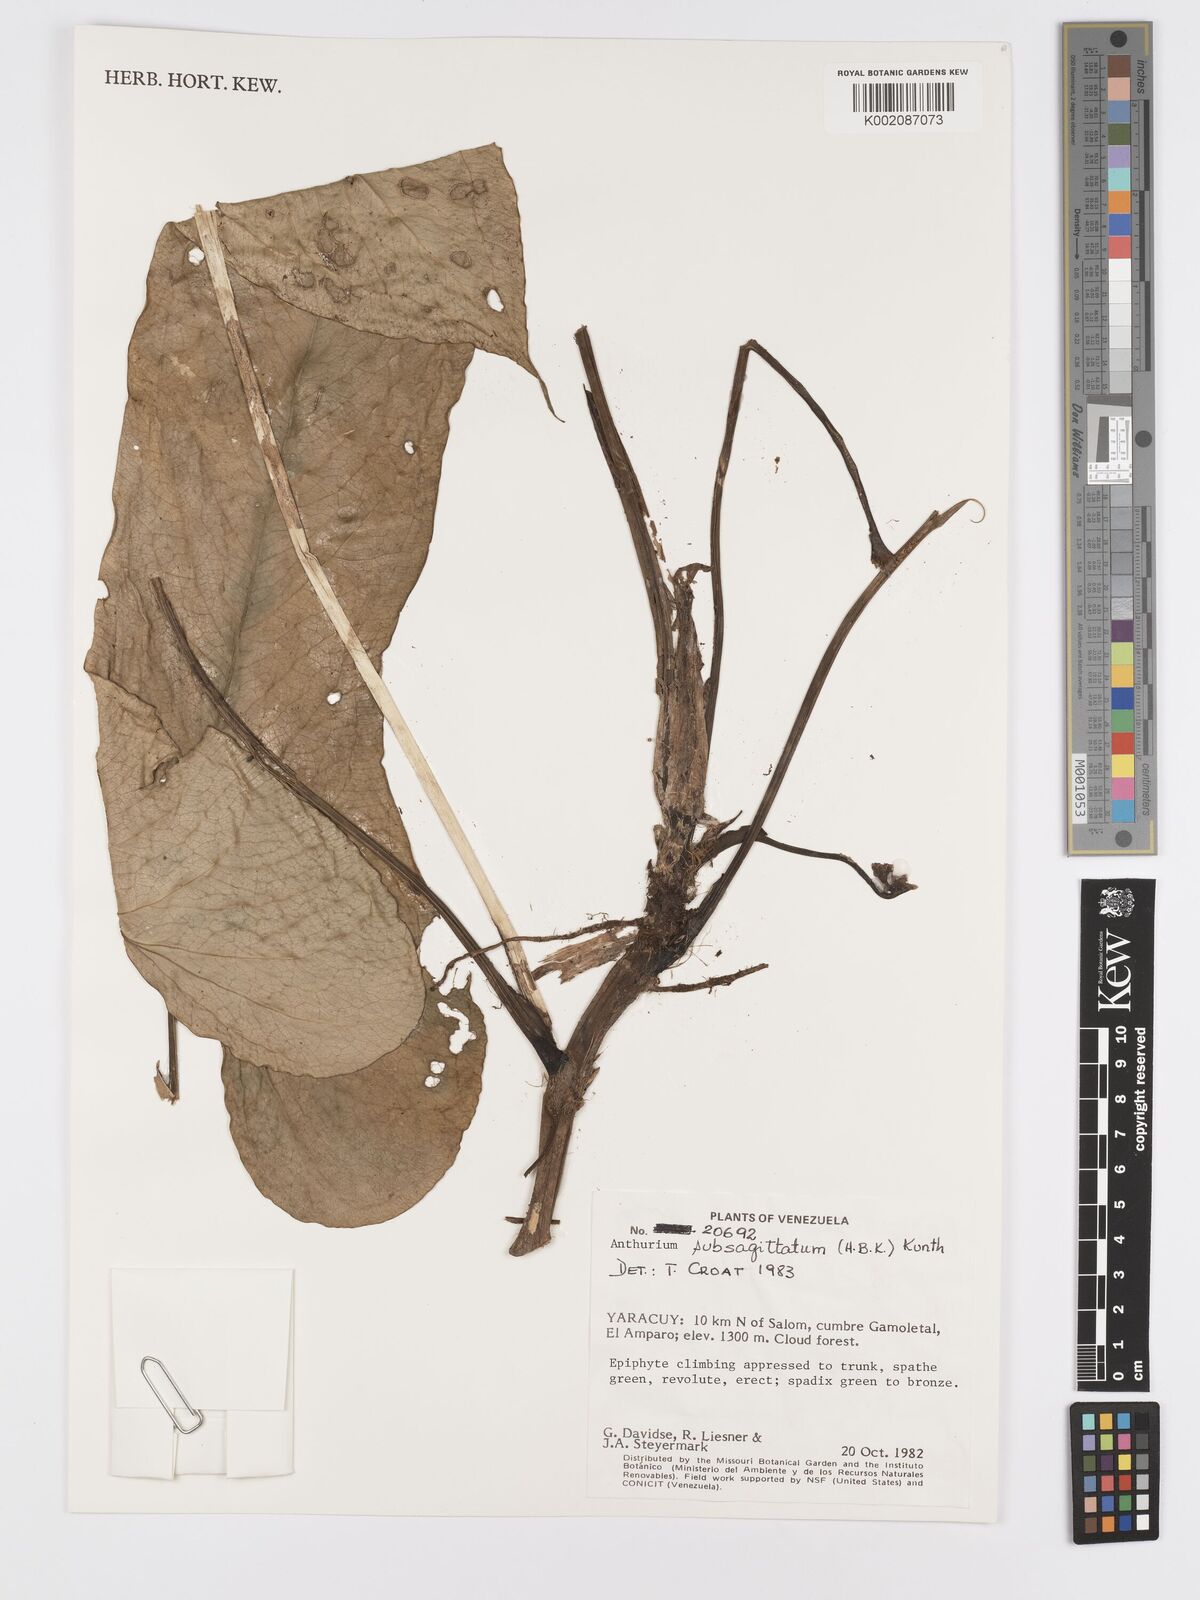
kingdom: Plantae
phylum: Tracheophyta
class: Liliopsida
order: Alismatales
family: Araceae
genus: Anthurium
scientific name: Anthurium
